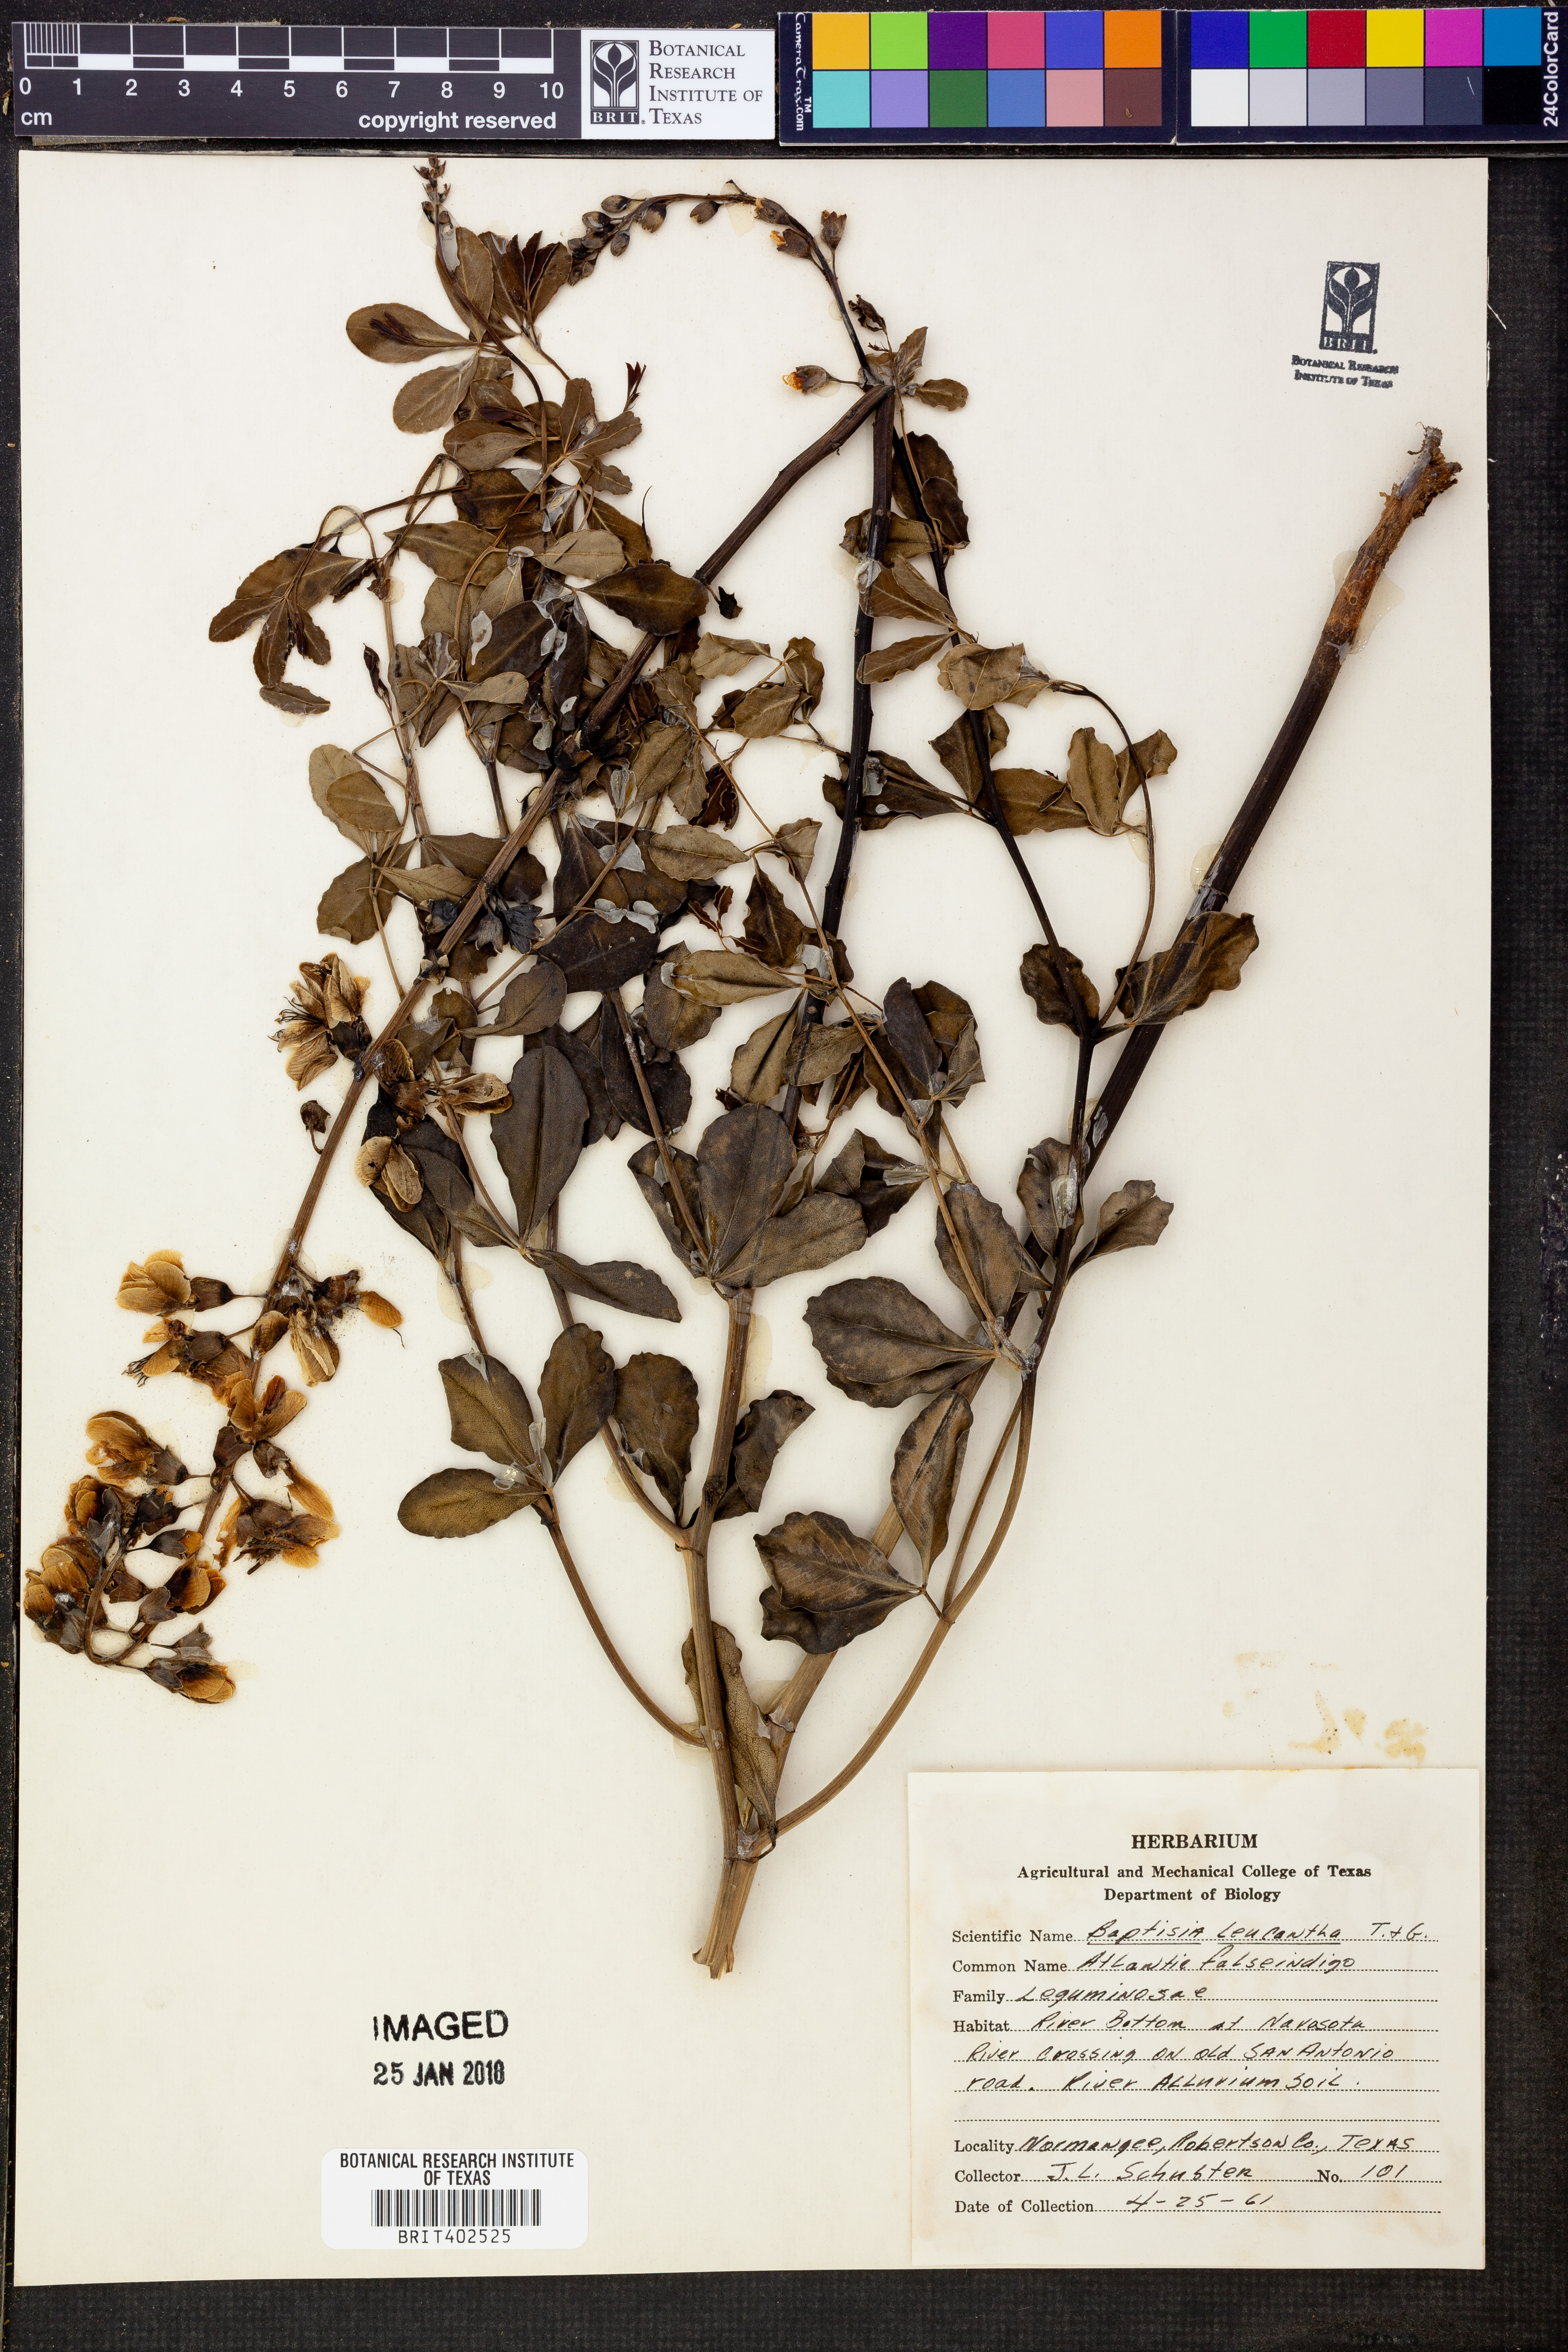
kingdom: Plantae
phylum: Tracheophyta
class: Magnoliopsida
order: Fabales
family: Fabaceae
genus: Baptisia
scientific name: Baptisia alba
